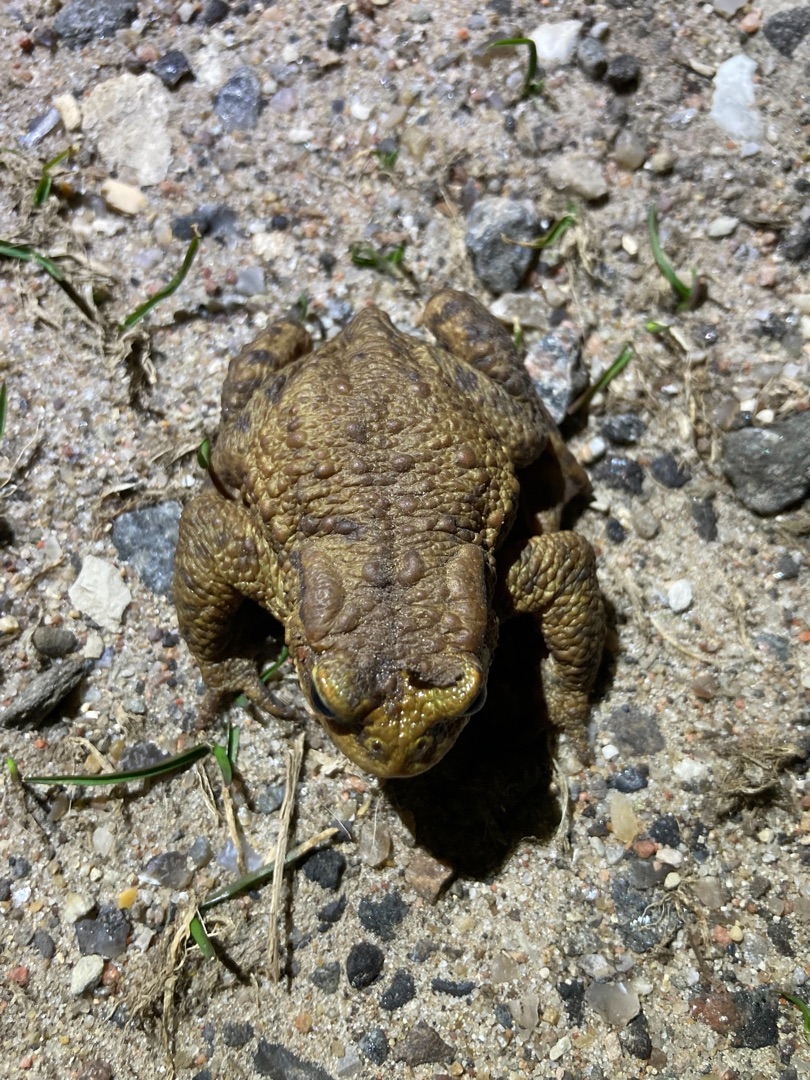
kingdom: Animalia
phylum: Chordata
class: Amphibia
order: Anura
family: Bufonidae
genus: Bufo
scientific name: Bufo bufo
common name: Skrubtudse
